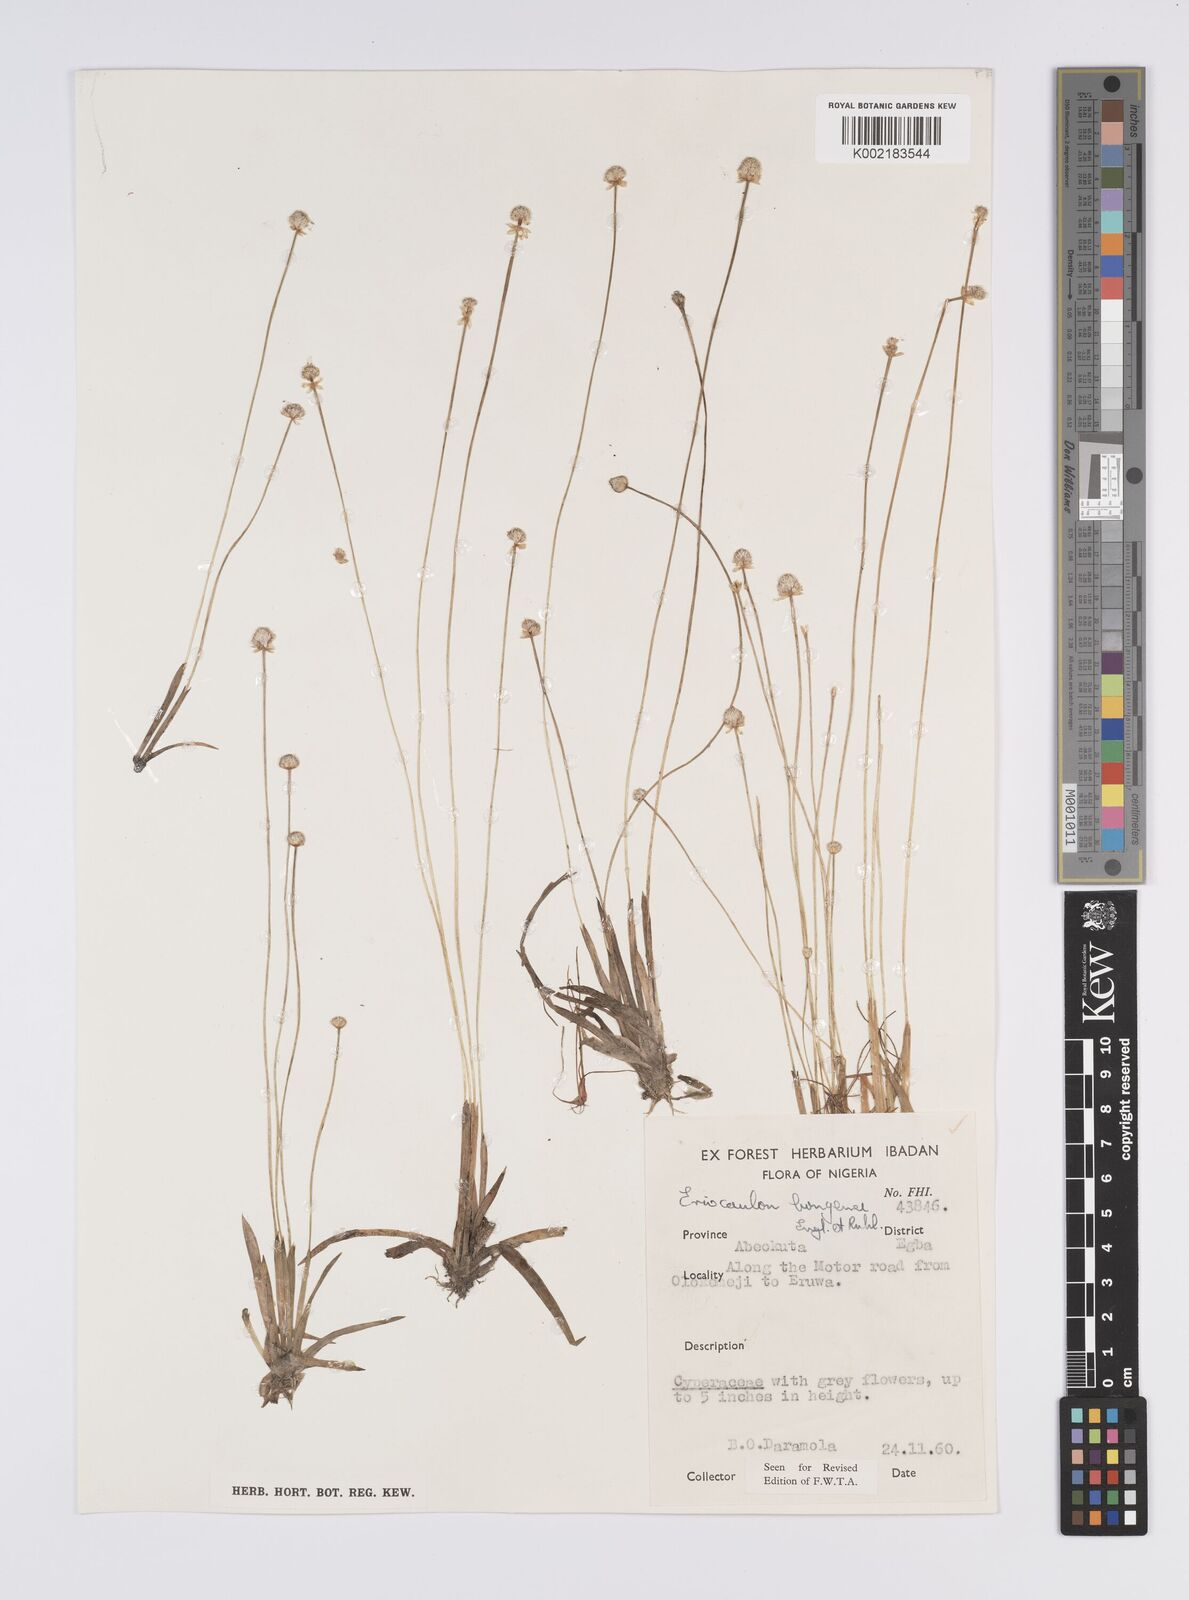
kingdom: Plantae
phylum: Tracheophyta
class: Liliopsida
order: Poales
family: Eriocaulaceae
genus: Eriocaulon
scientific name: Eriocaulon bongense
